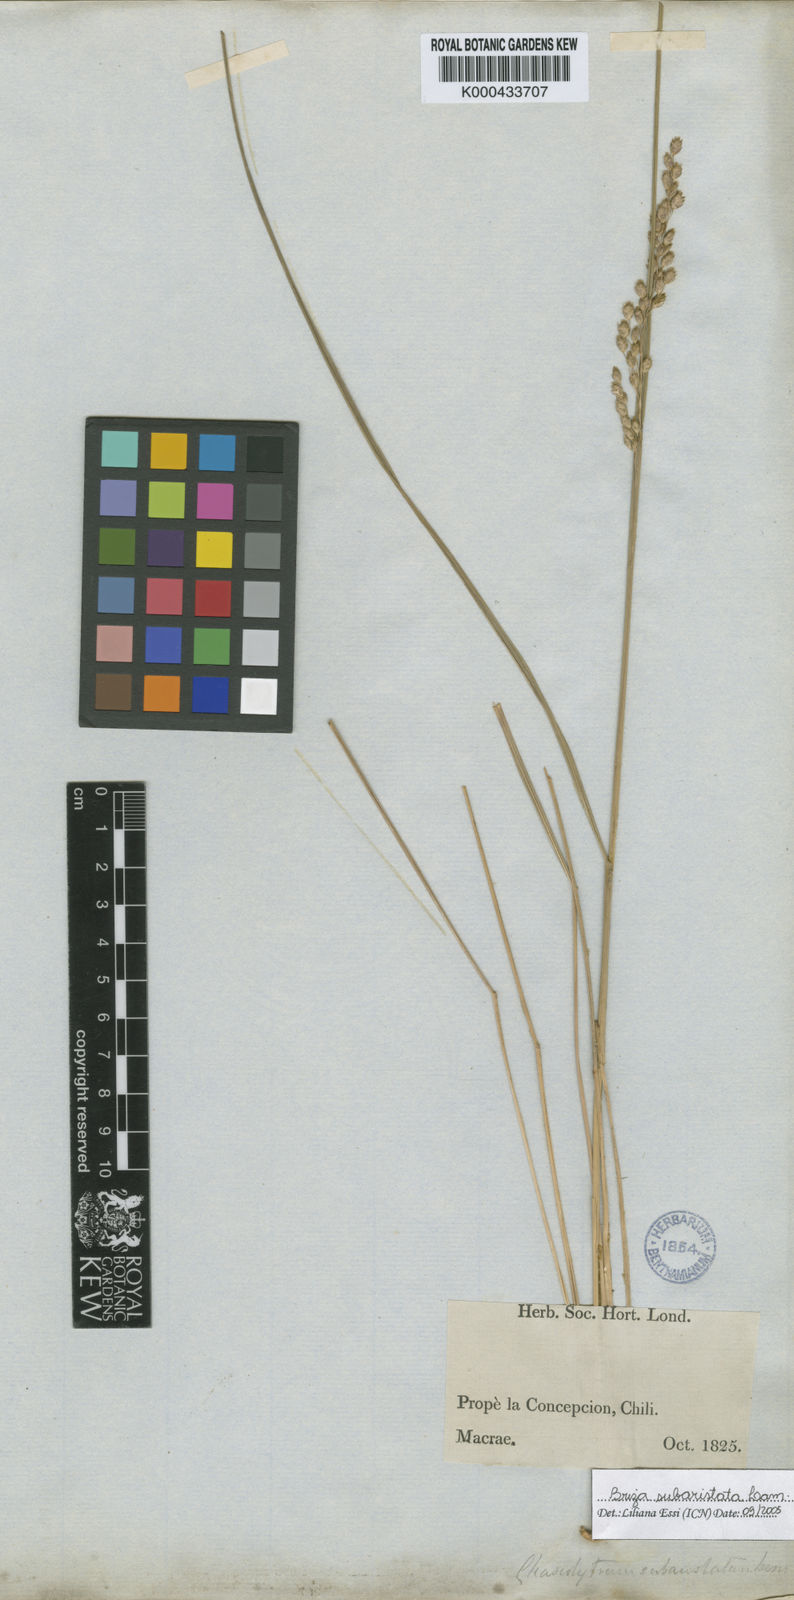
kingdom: Plantae
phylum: Tracheophyta
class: Liliopsida
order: Poales
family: Poaceae
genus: Chascolytrum
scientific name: Chascolytrum subaristatum
